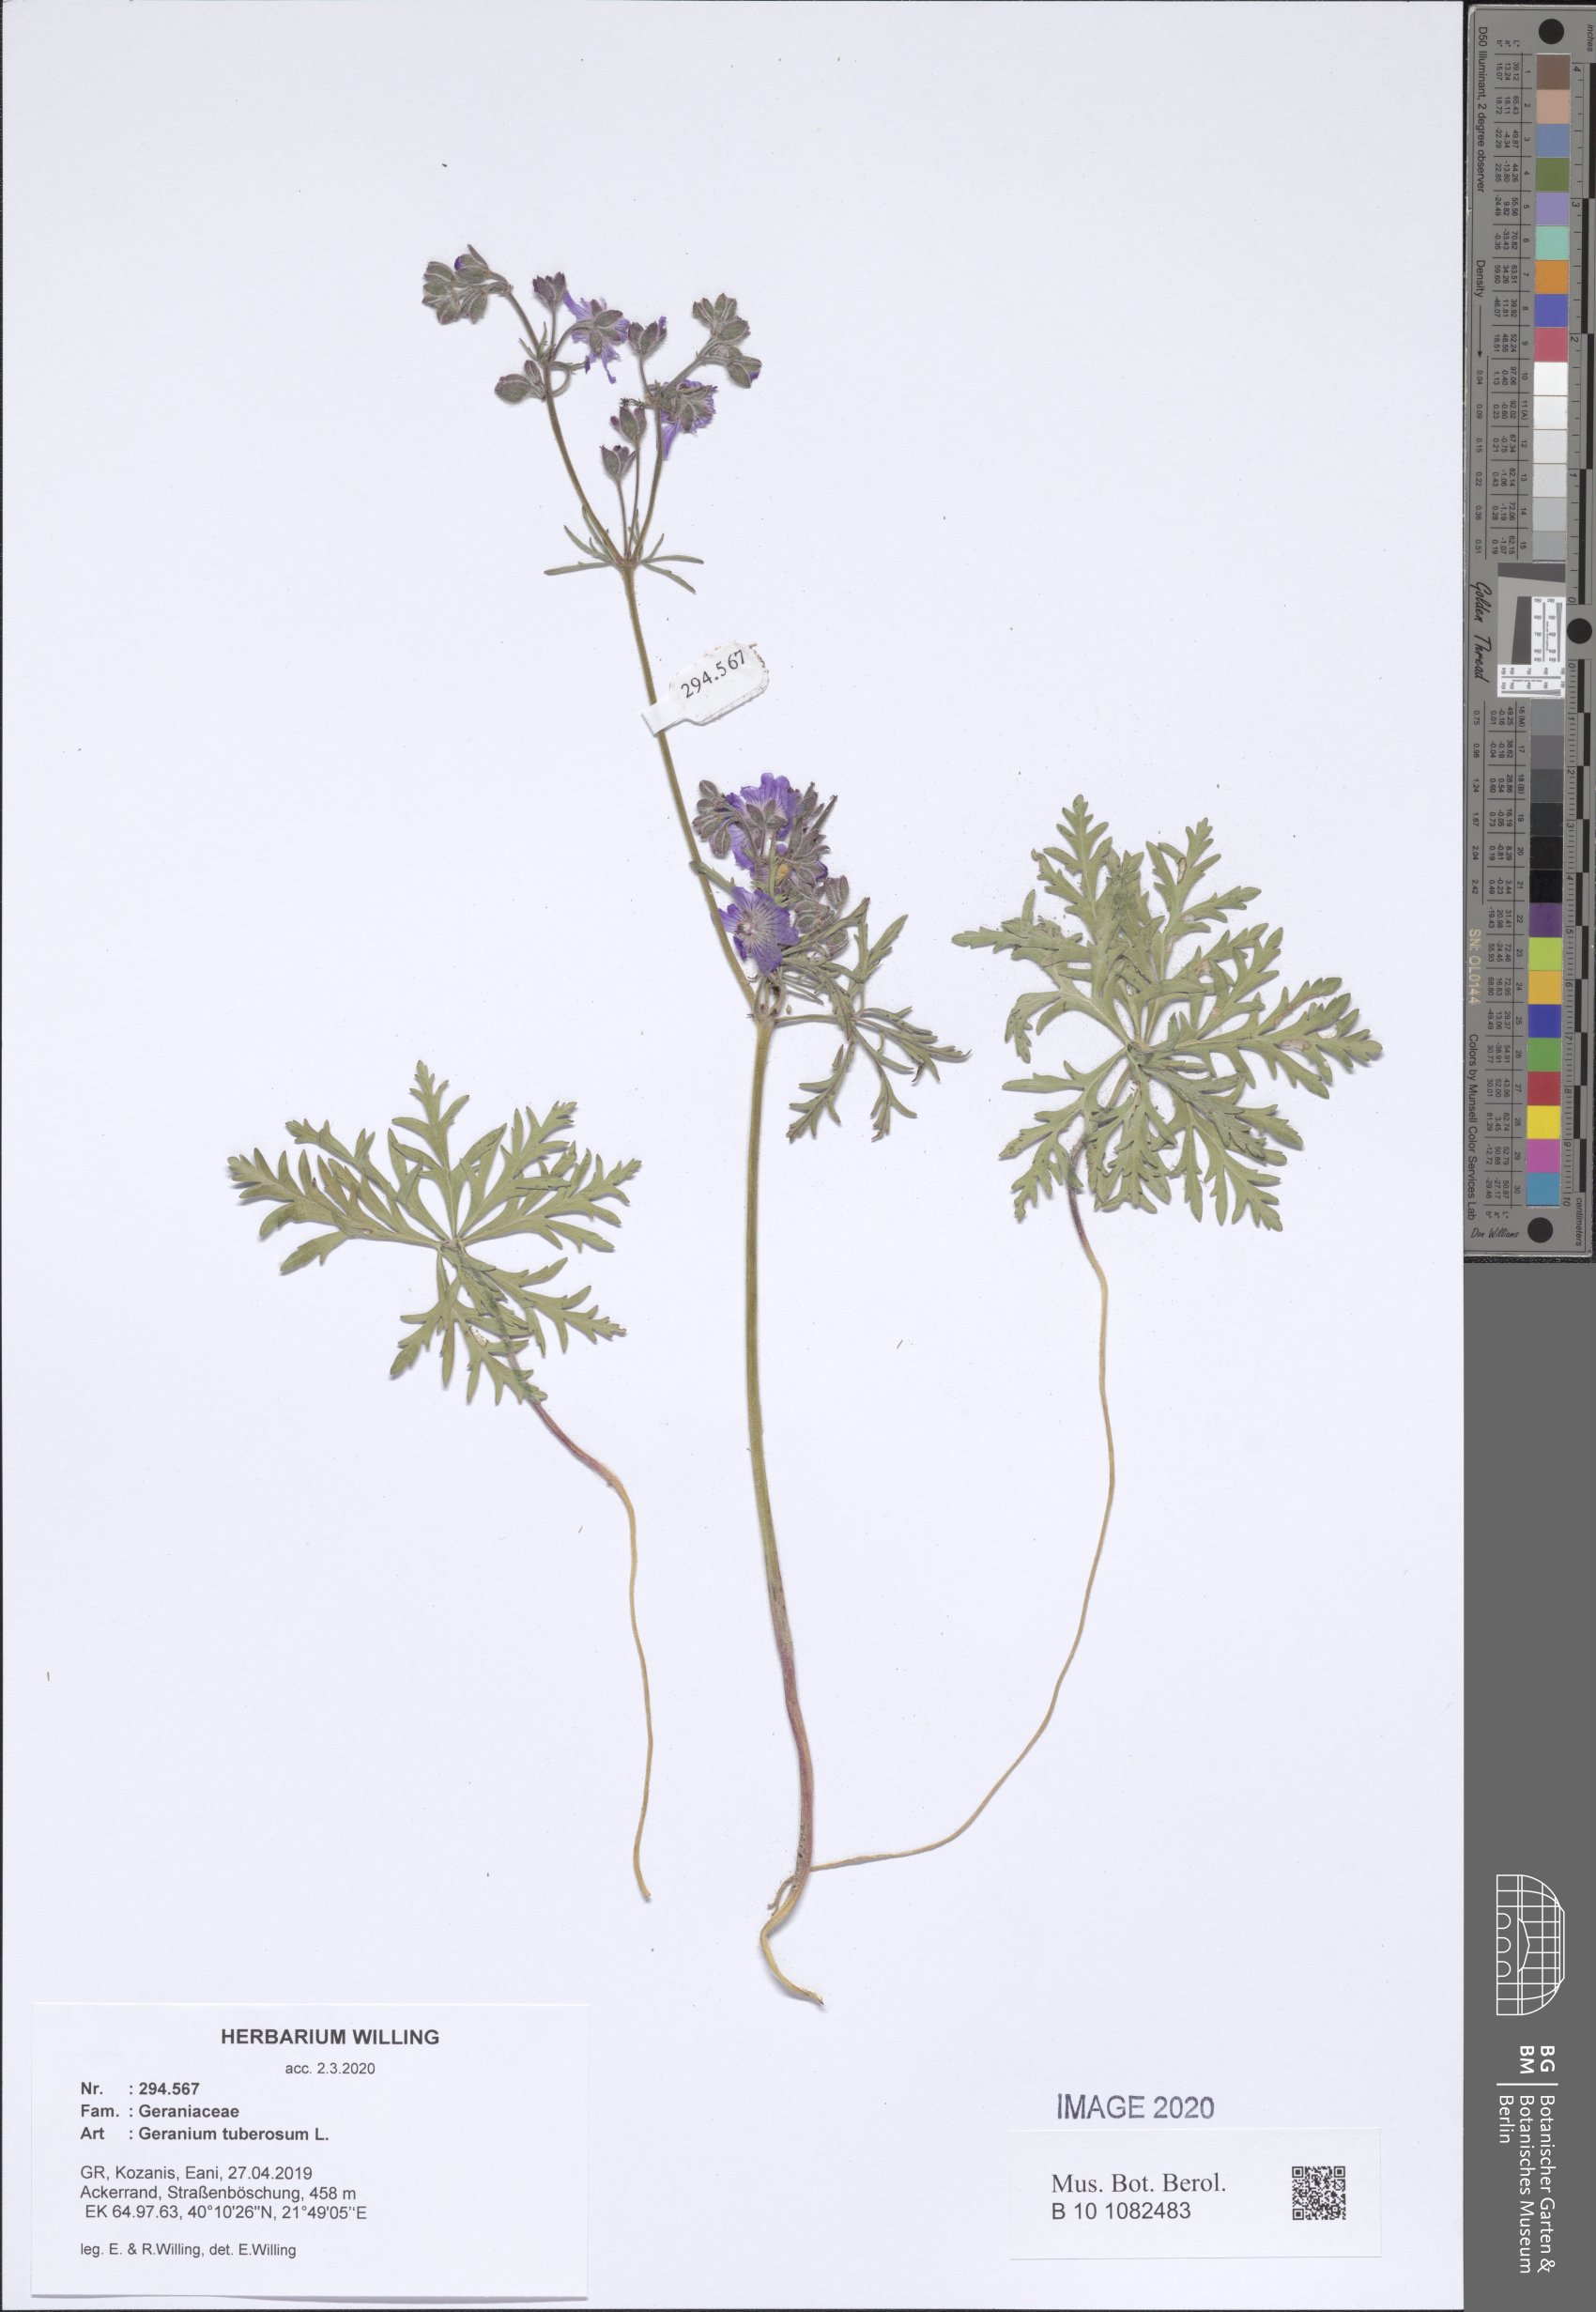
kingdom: Plantae
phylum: Tracheophyta
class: Magnoliopsida
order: Geraniales
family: Geraniaceae
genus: Geranium
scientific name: Geranium tuberosum
